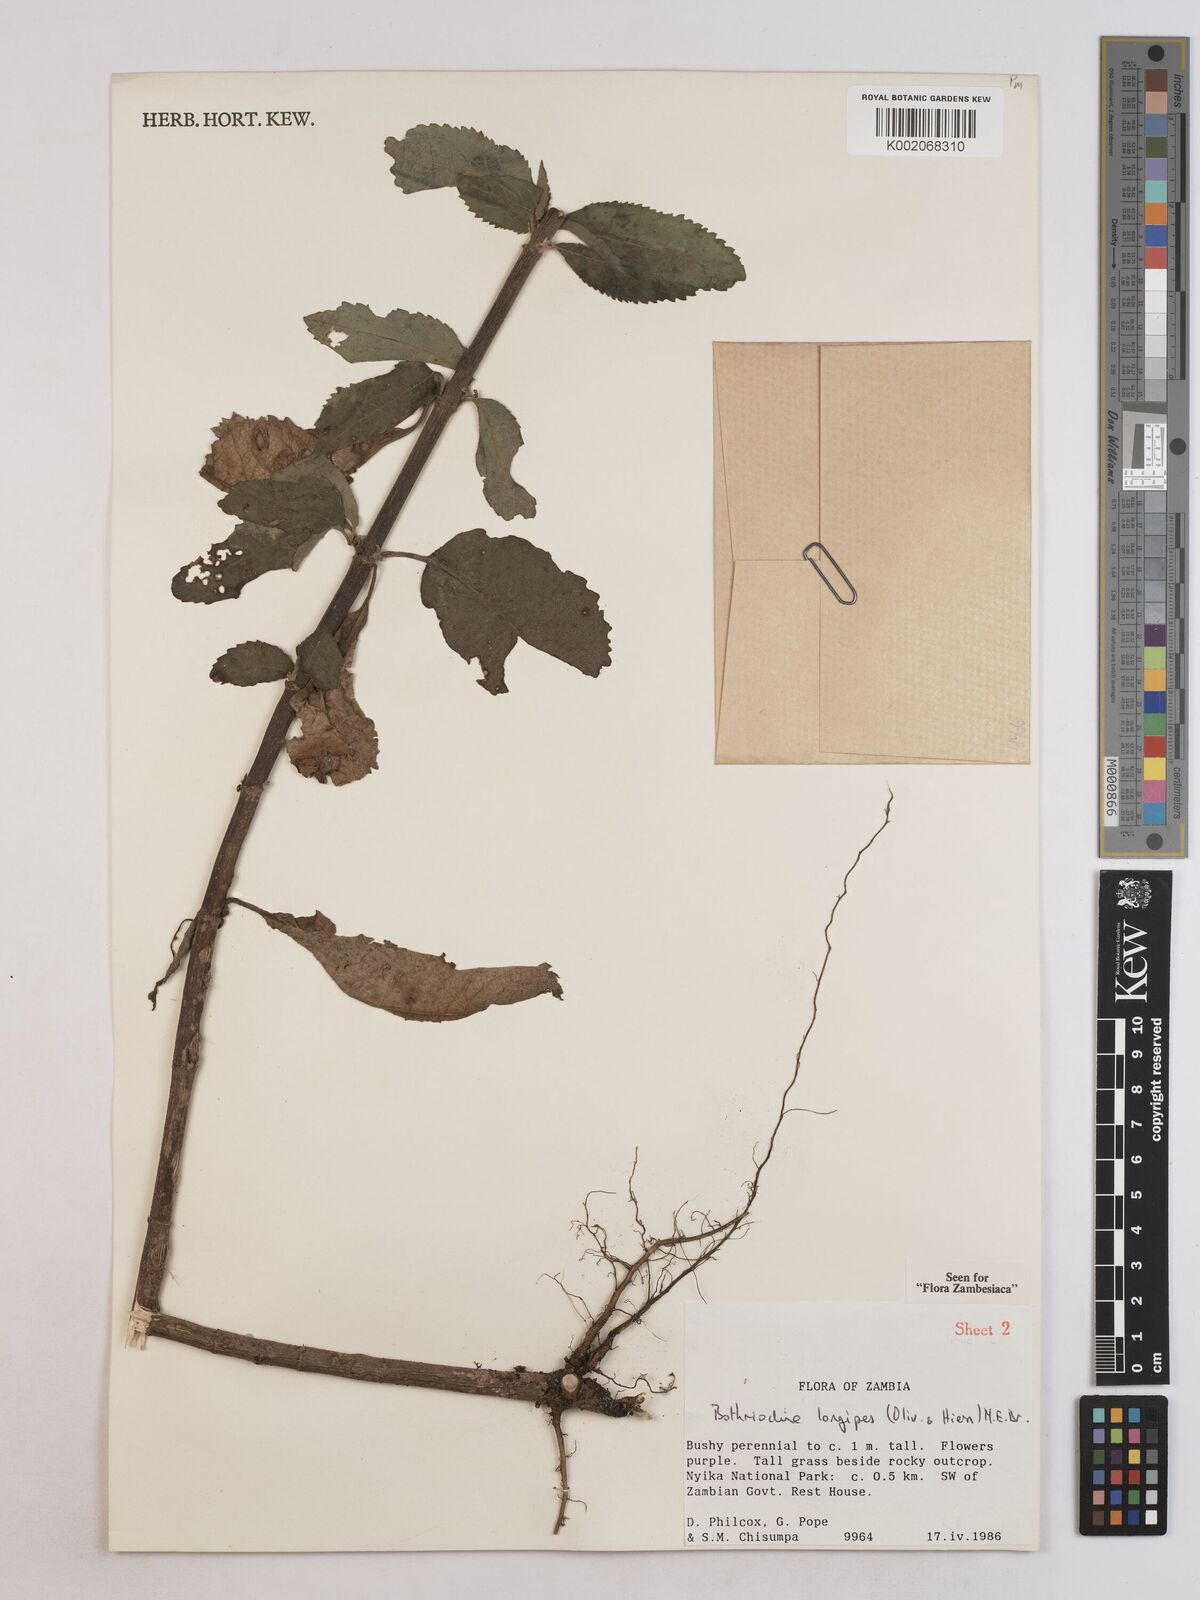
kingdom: Plantae
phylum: Tracheophyta
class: Magnoliopsida
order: Asterales
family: Asteraceae
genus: Bothriocline
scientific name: Bothriocline longipes
